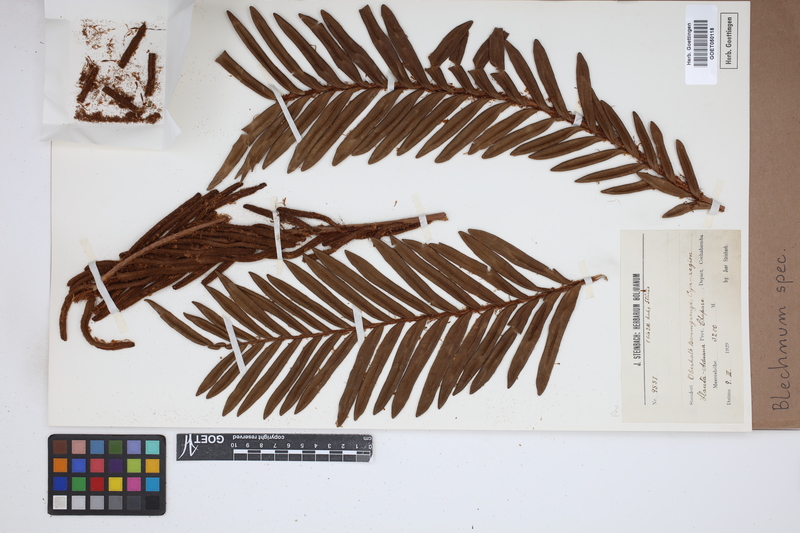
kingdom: Plantae
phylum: Tracheophyta
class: Polypodiopsida
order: Polypodiales
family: Blechnaceae
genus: Blechnum
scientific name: Blechnum
